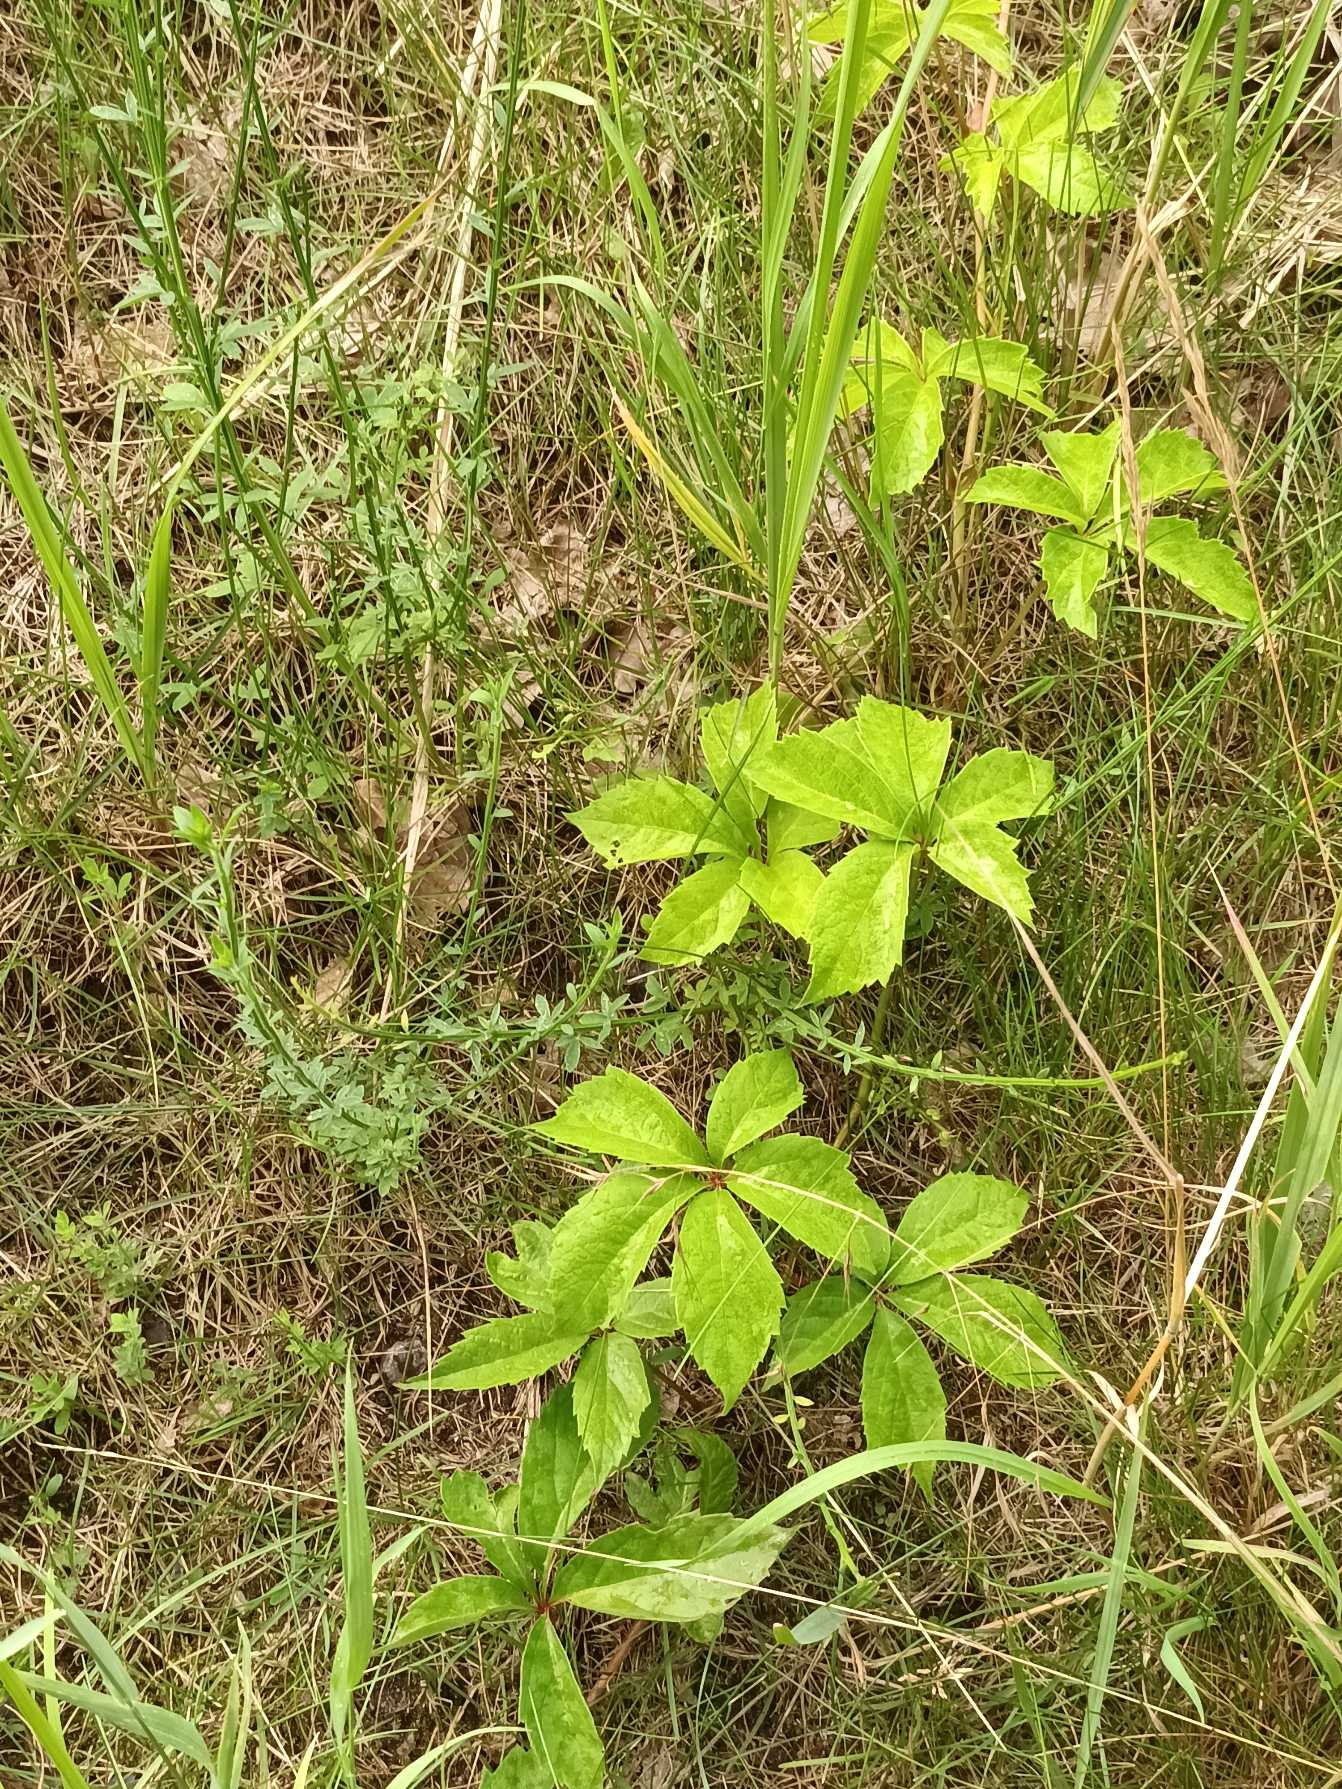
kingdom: Plantae
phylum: Tracheophyta
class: Magnoliopsida
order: Vitales
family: Vitaceae
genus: Parthenocissus
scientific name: Parthenocissus inserta
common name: Vildvin
